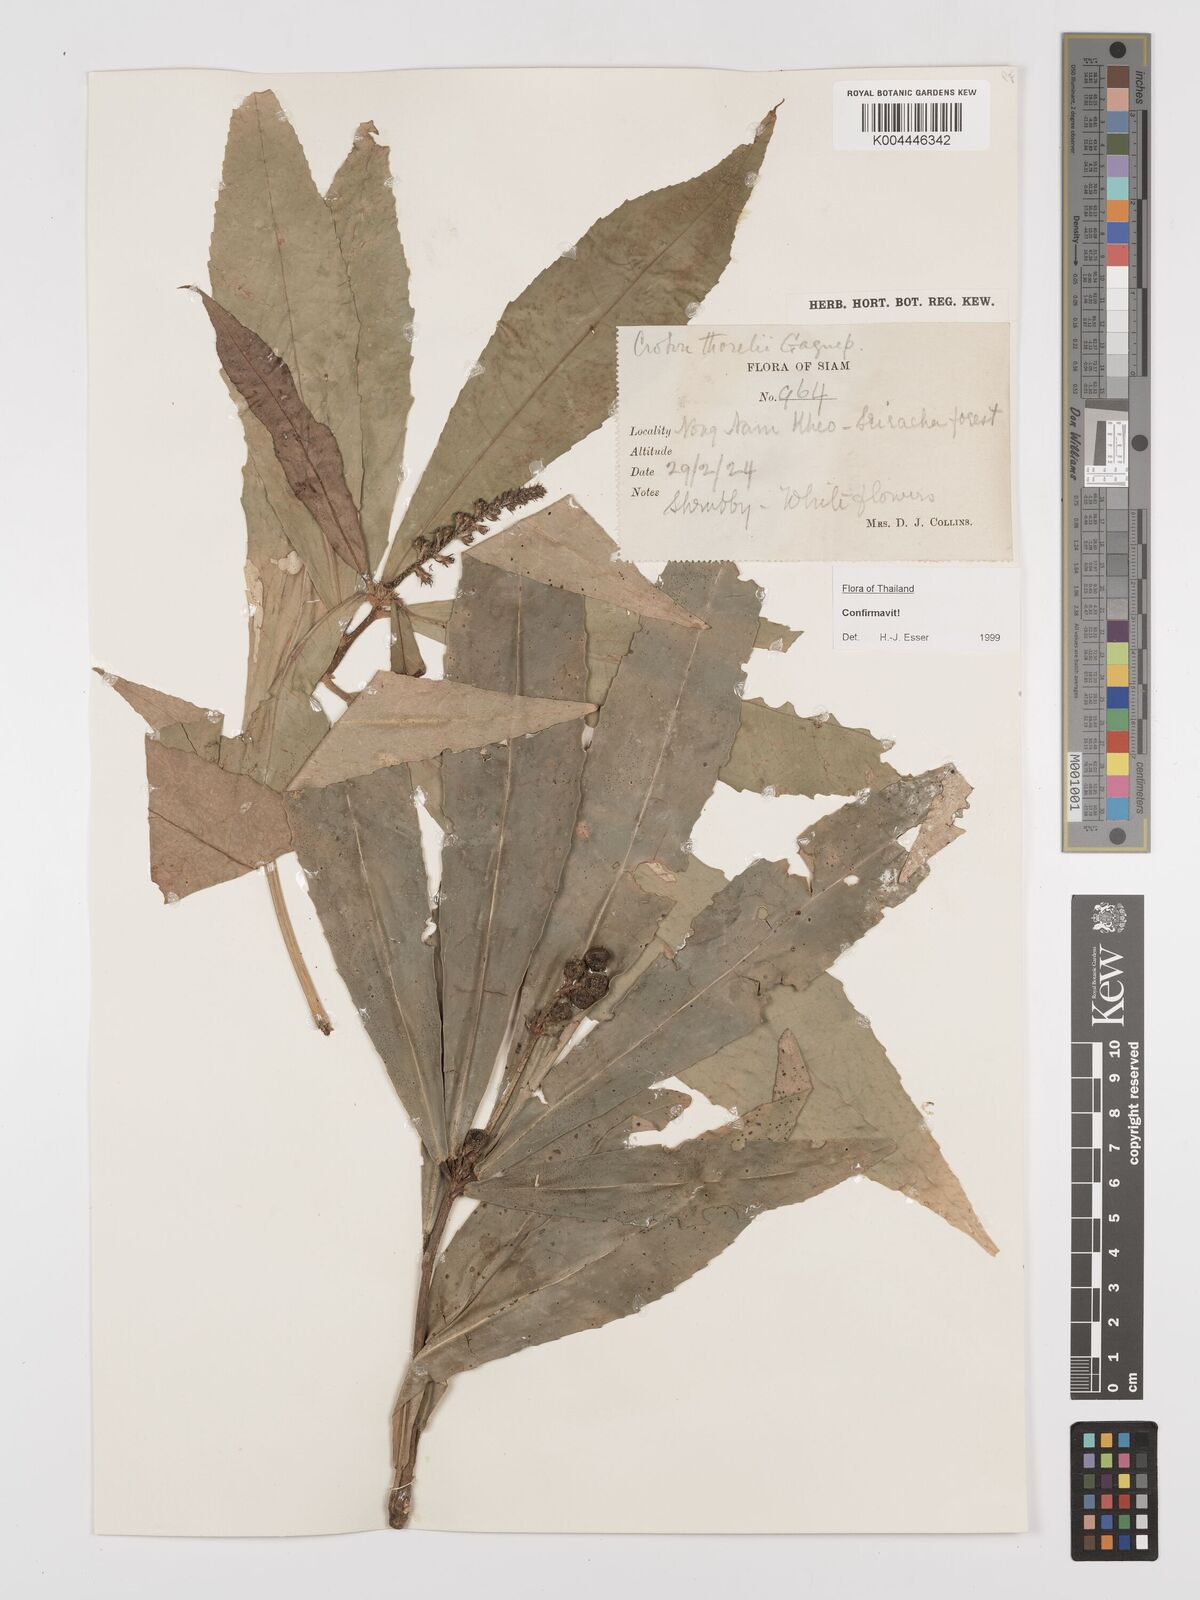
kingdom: Plantae
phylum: Tracheophyta
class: Magnoliopsida
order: Malpighiales
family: Euphorbiaceae
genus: Croton
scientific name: Croton thorelii
